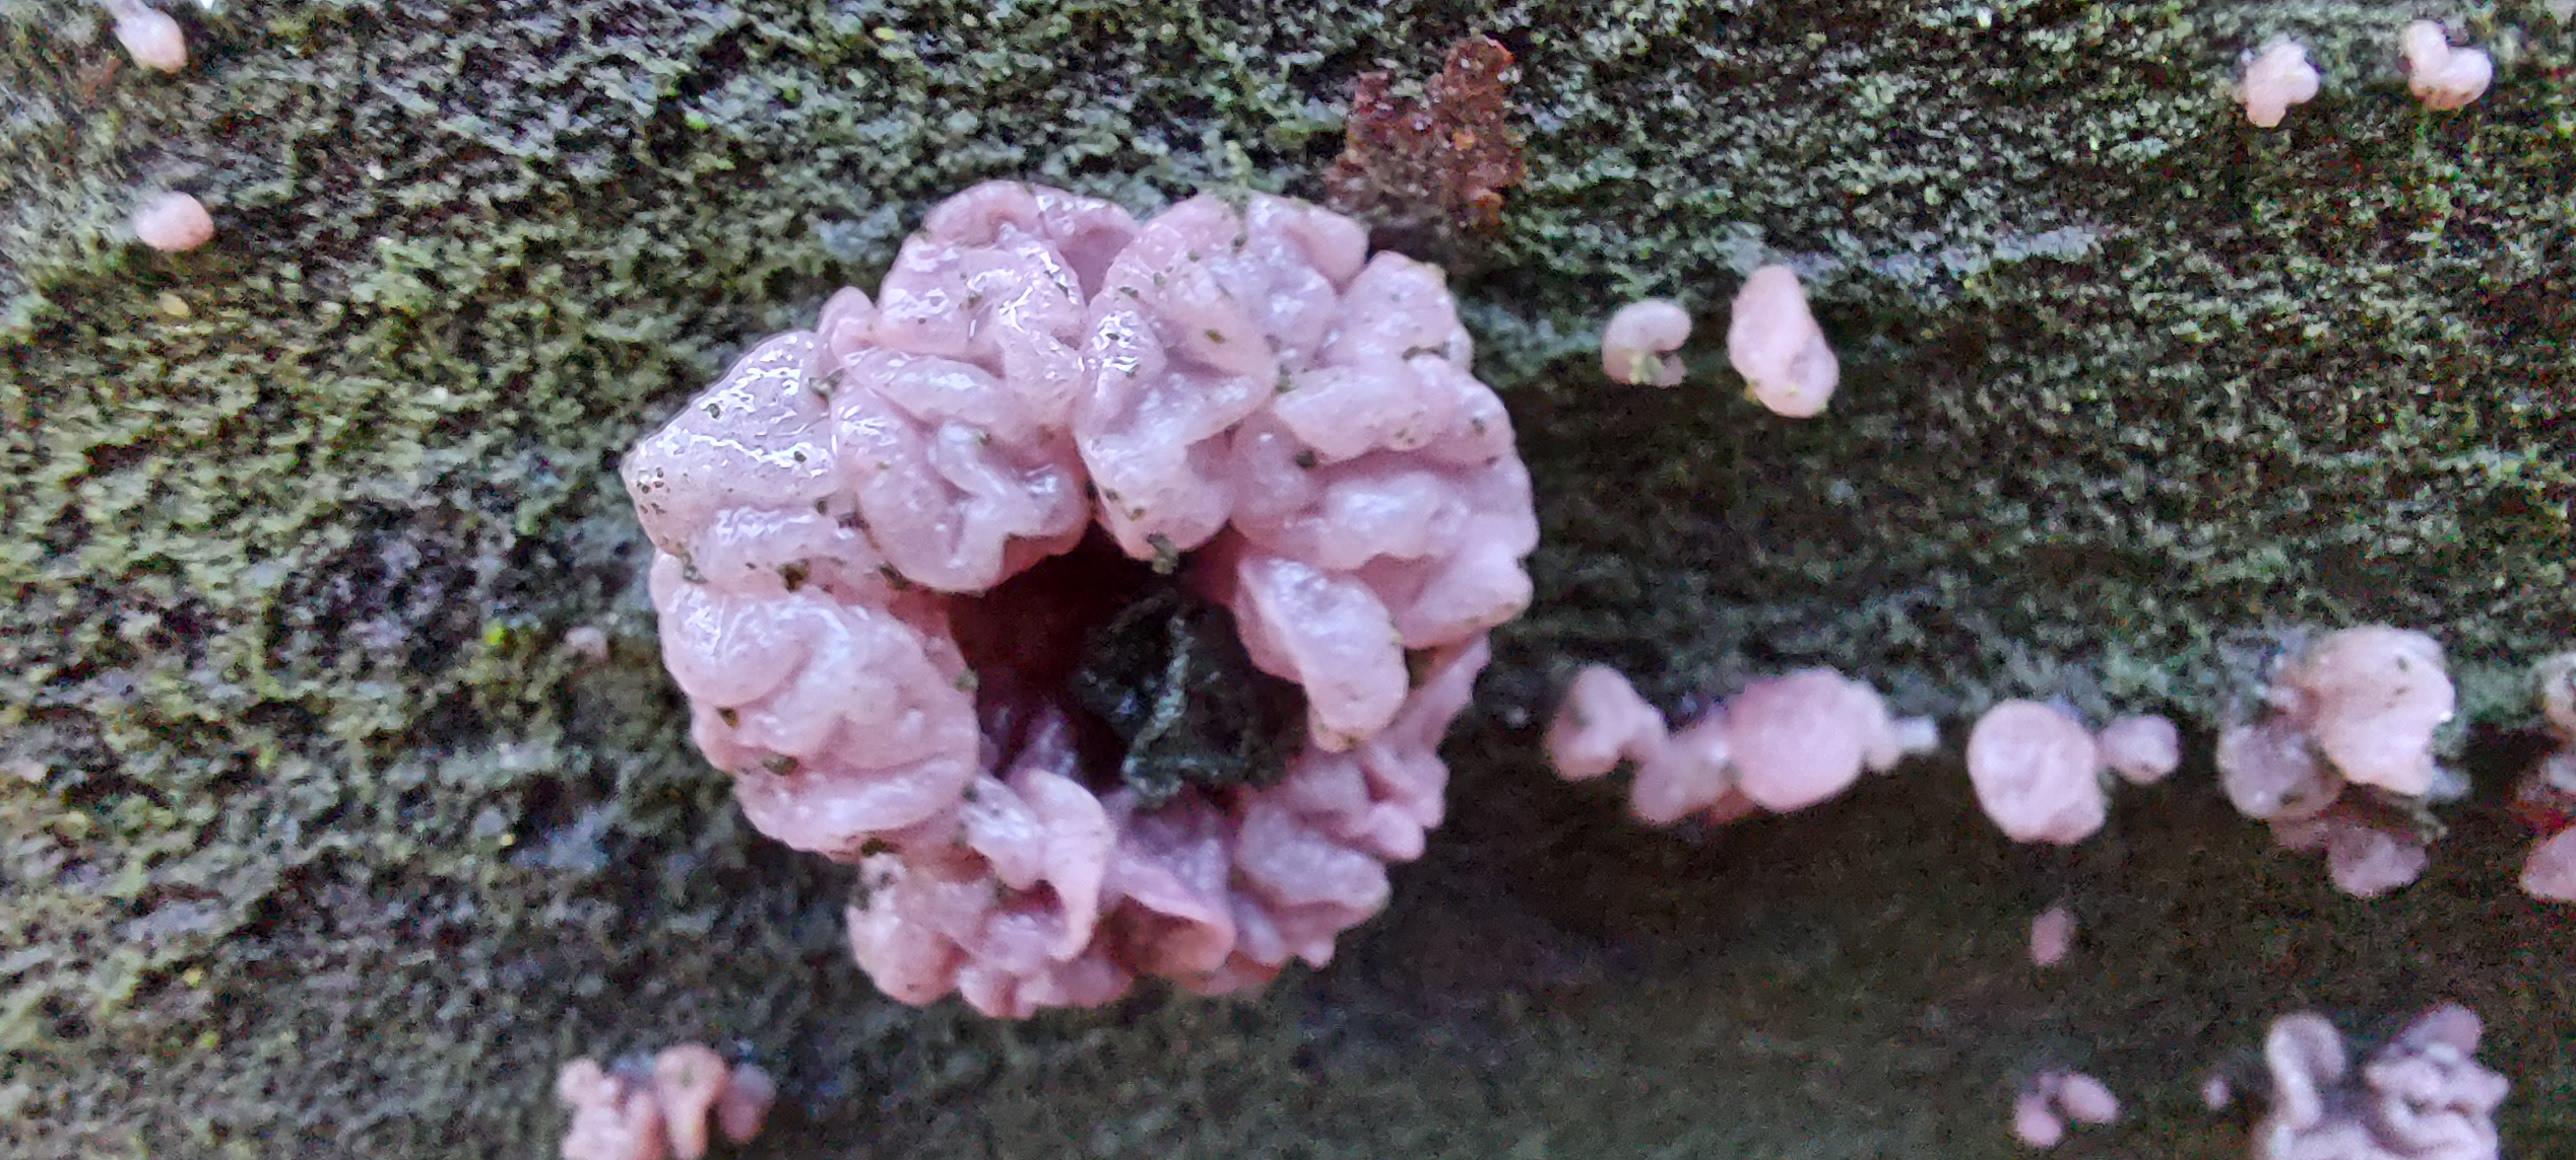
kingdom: Fungi
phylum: Ascomycota
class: Leotiomycetes
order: Helotiales
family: Gelatinodiscaceae
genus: Ascocoryne
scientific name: Ascocoryne sarcoides
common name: rødlilla sejskive
